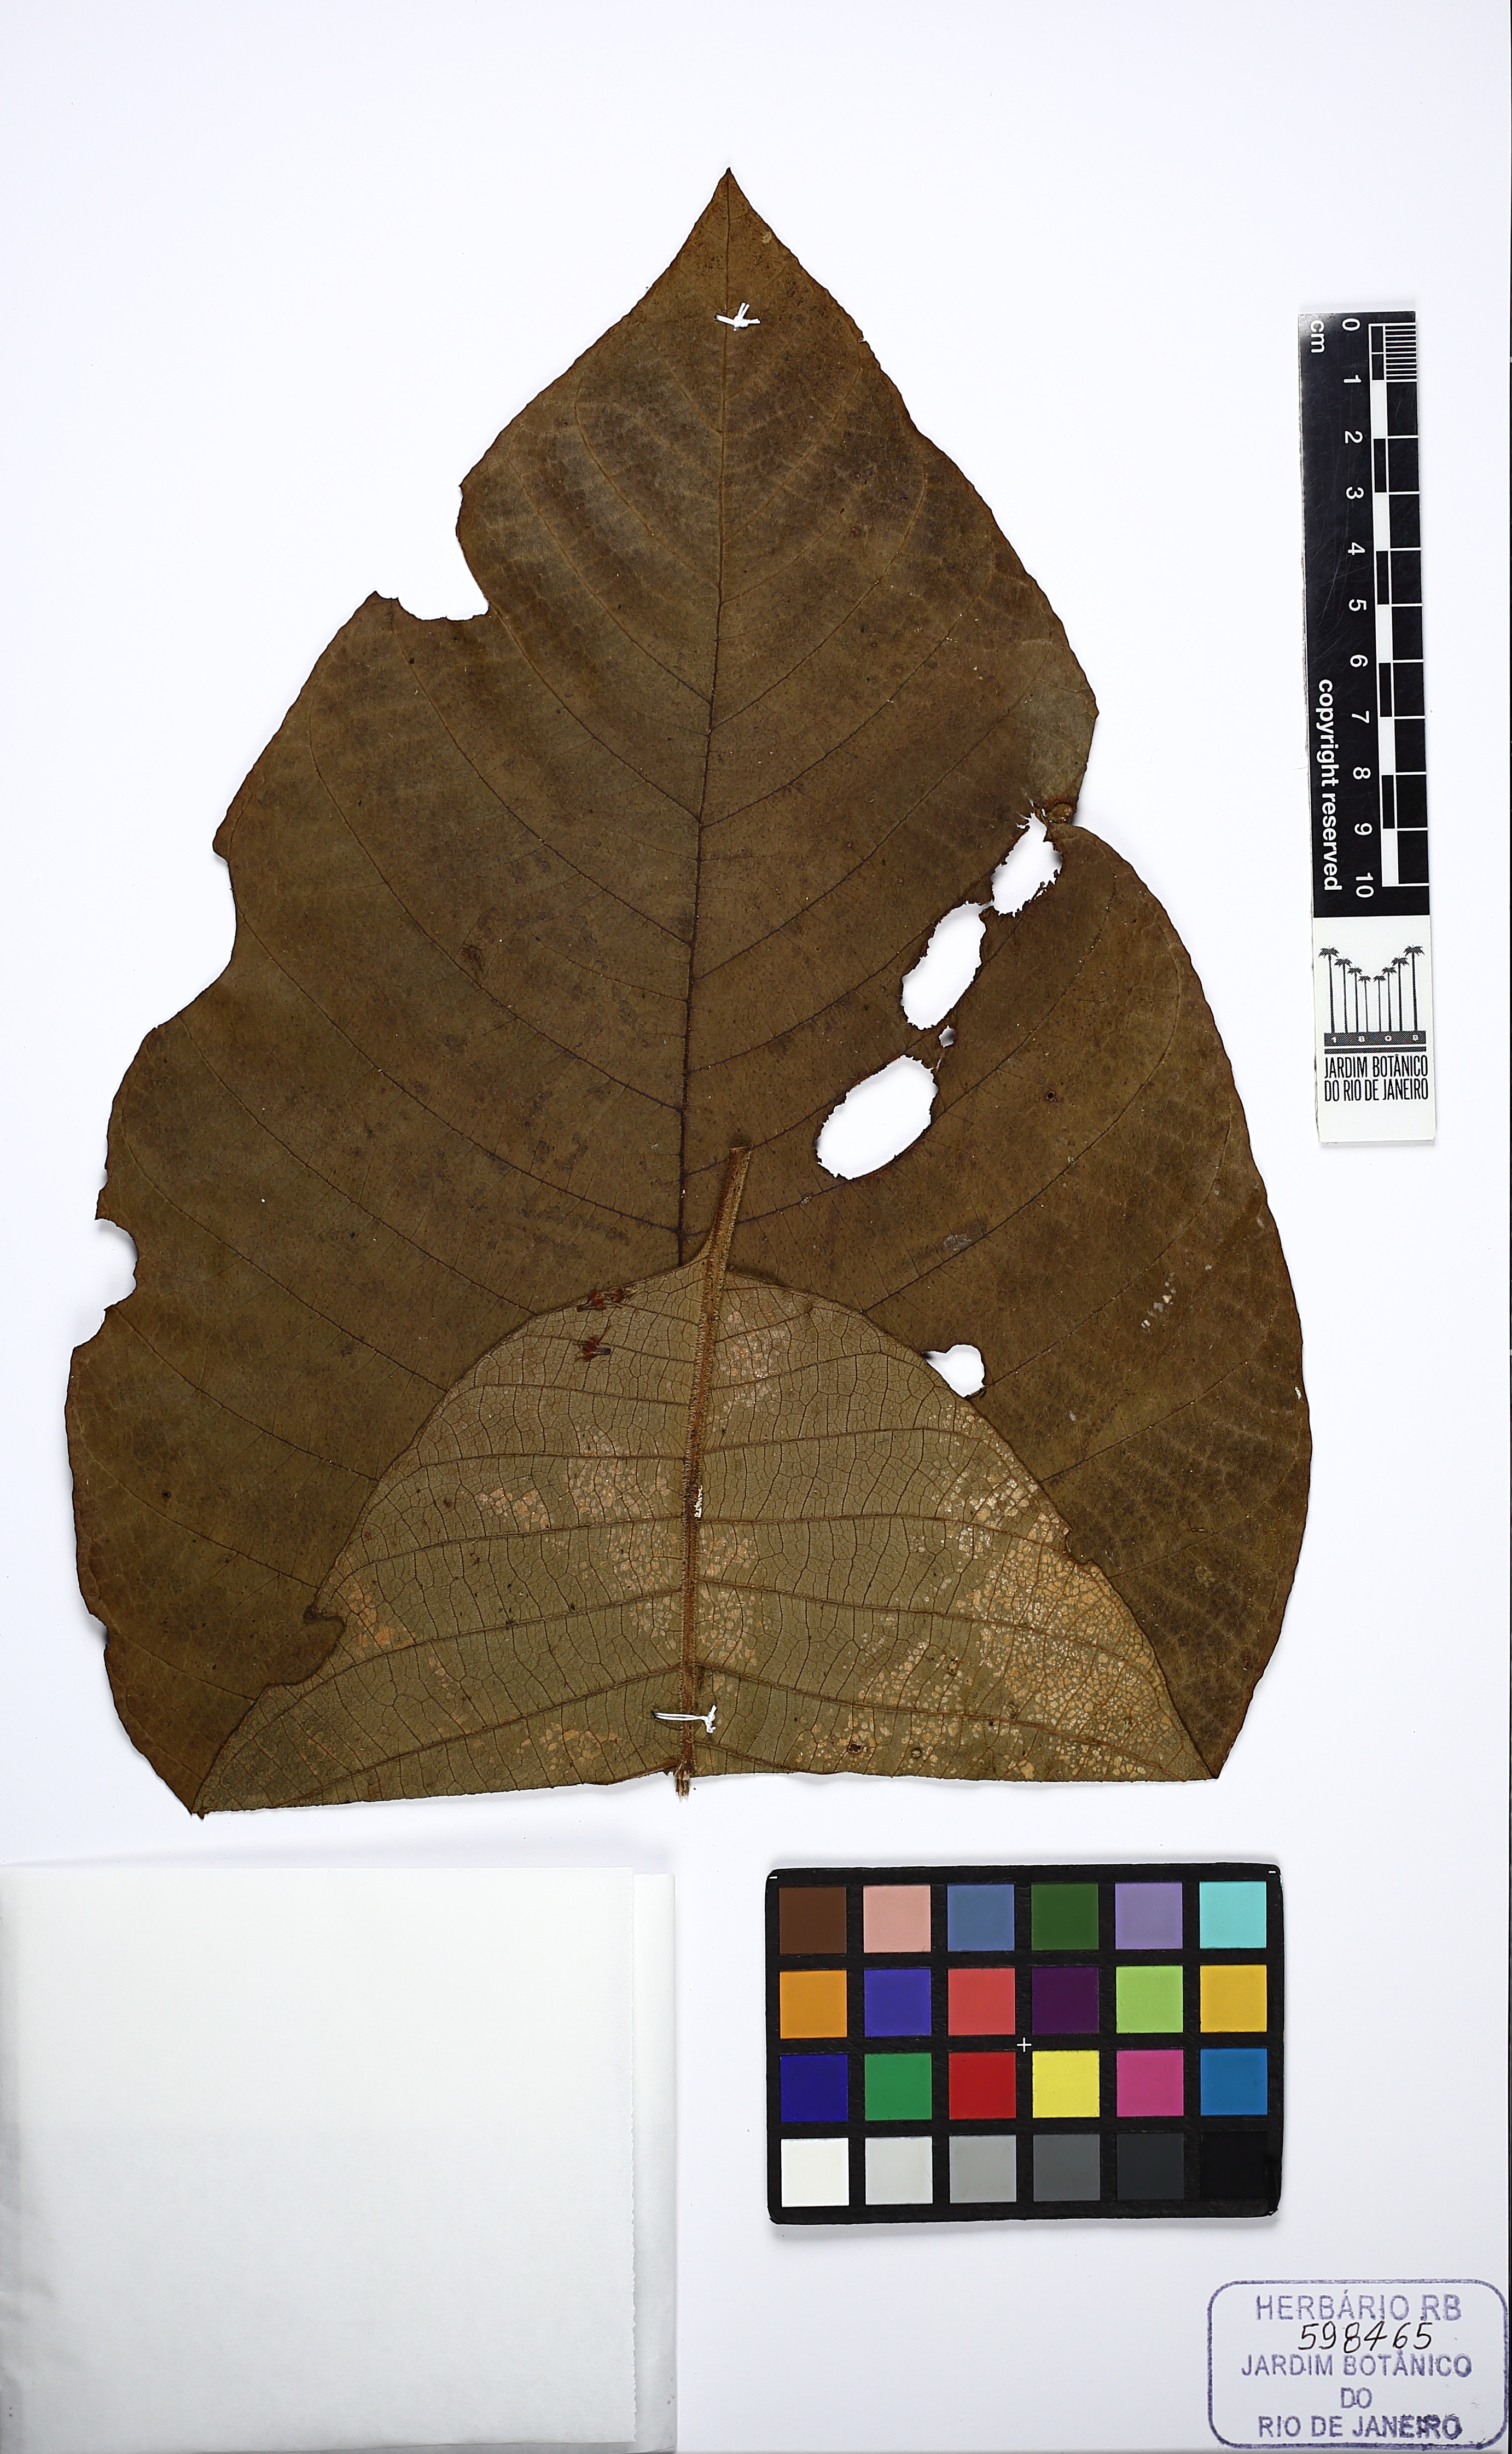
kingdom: Plantae
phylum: Tracheophyta
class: Magnoliopsida
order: Gentianales
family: Rubiaceae
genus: Bathysa
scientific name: Bathysa australis
